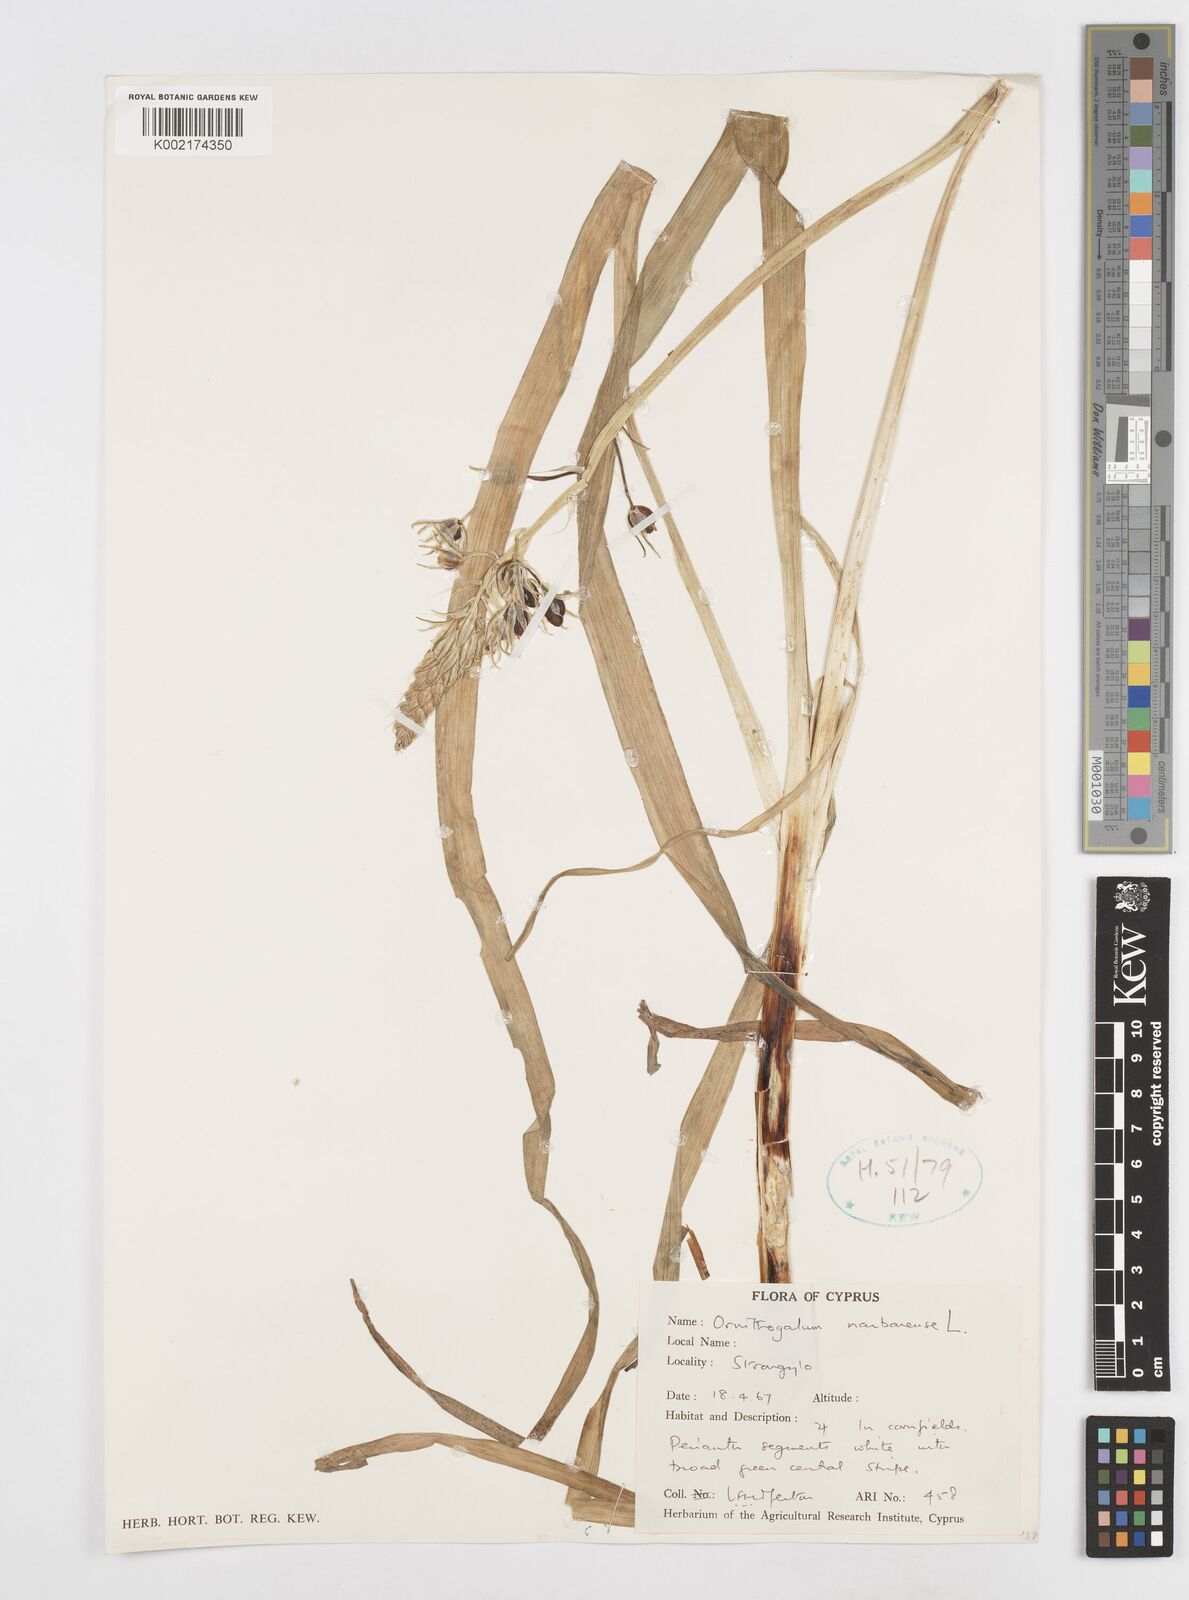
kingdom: Plantae
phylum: Tracheophyta
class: Liliopsida
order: Asparagales
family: Asparagaceae
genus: Ornithogalum
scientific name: Ornithogalum narbonense
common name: Bath-asparagus
